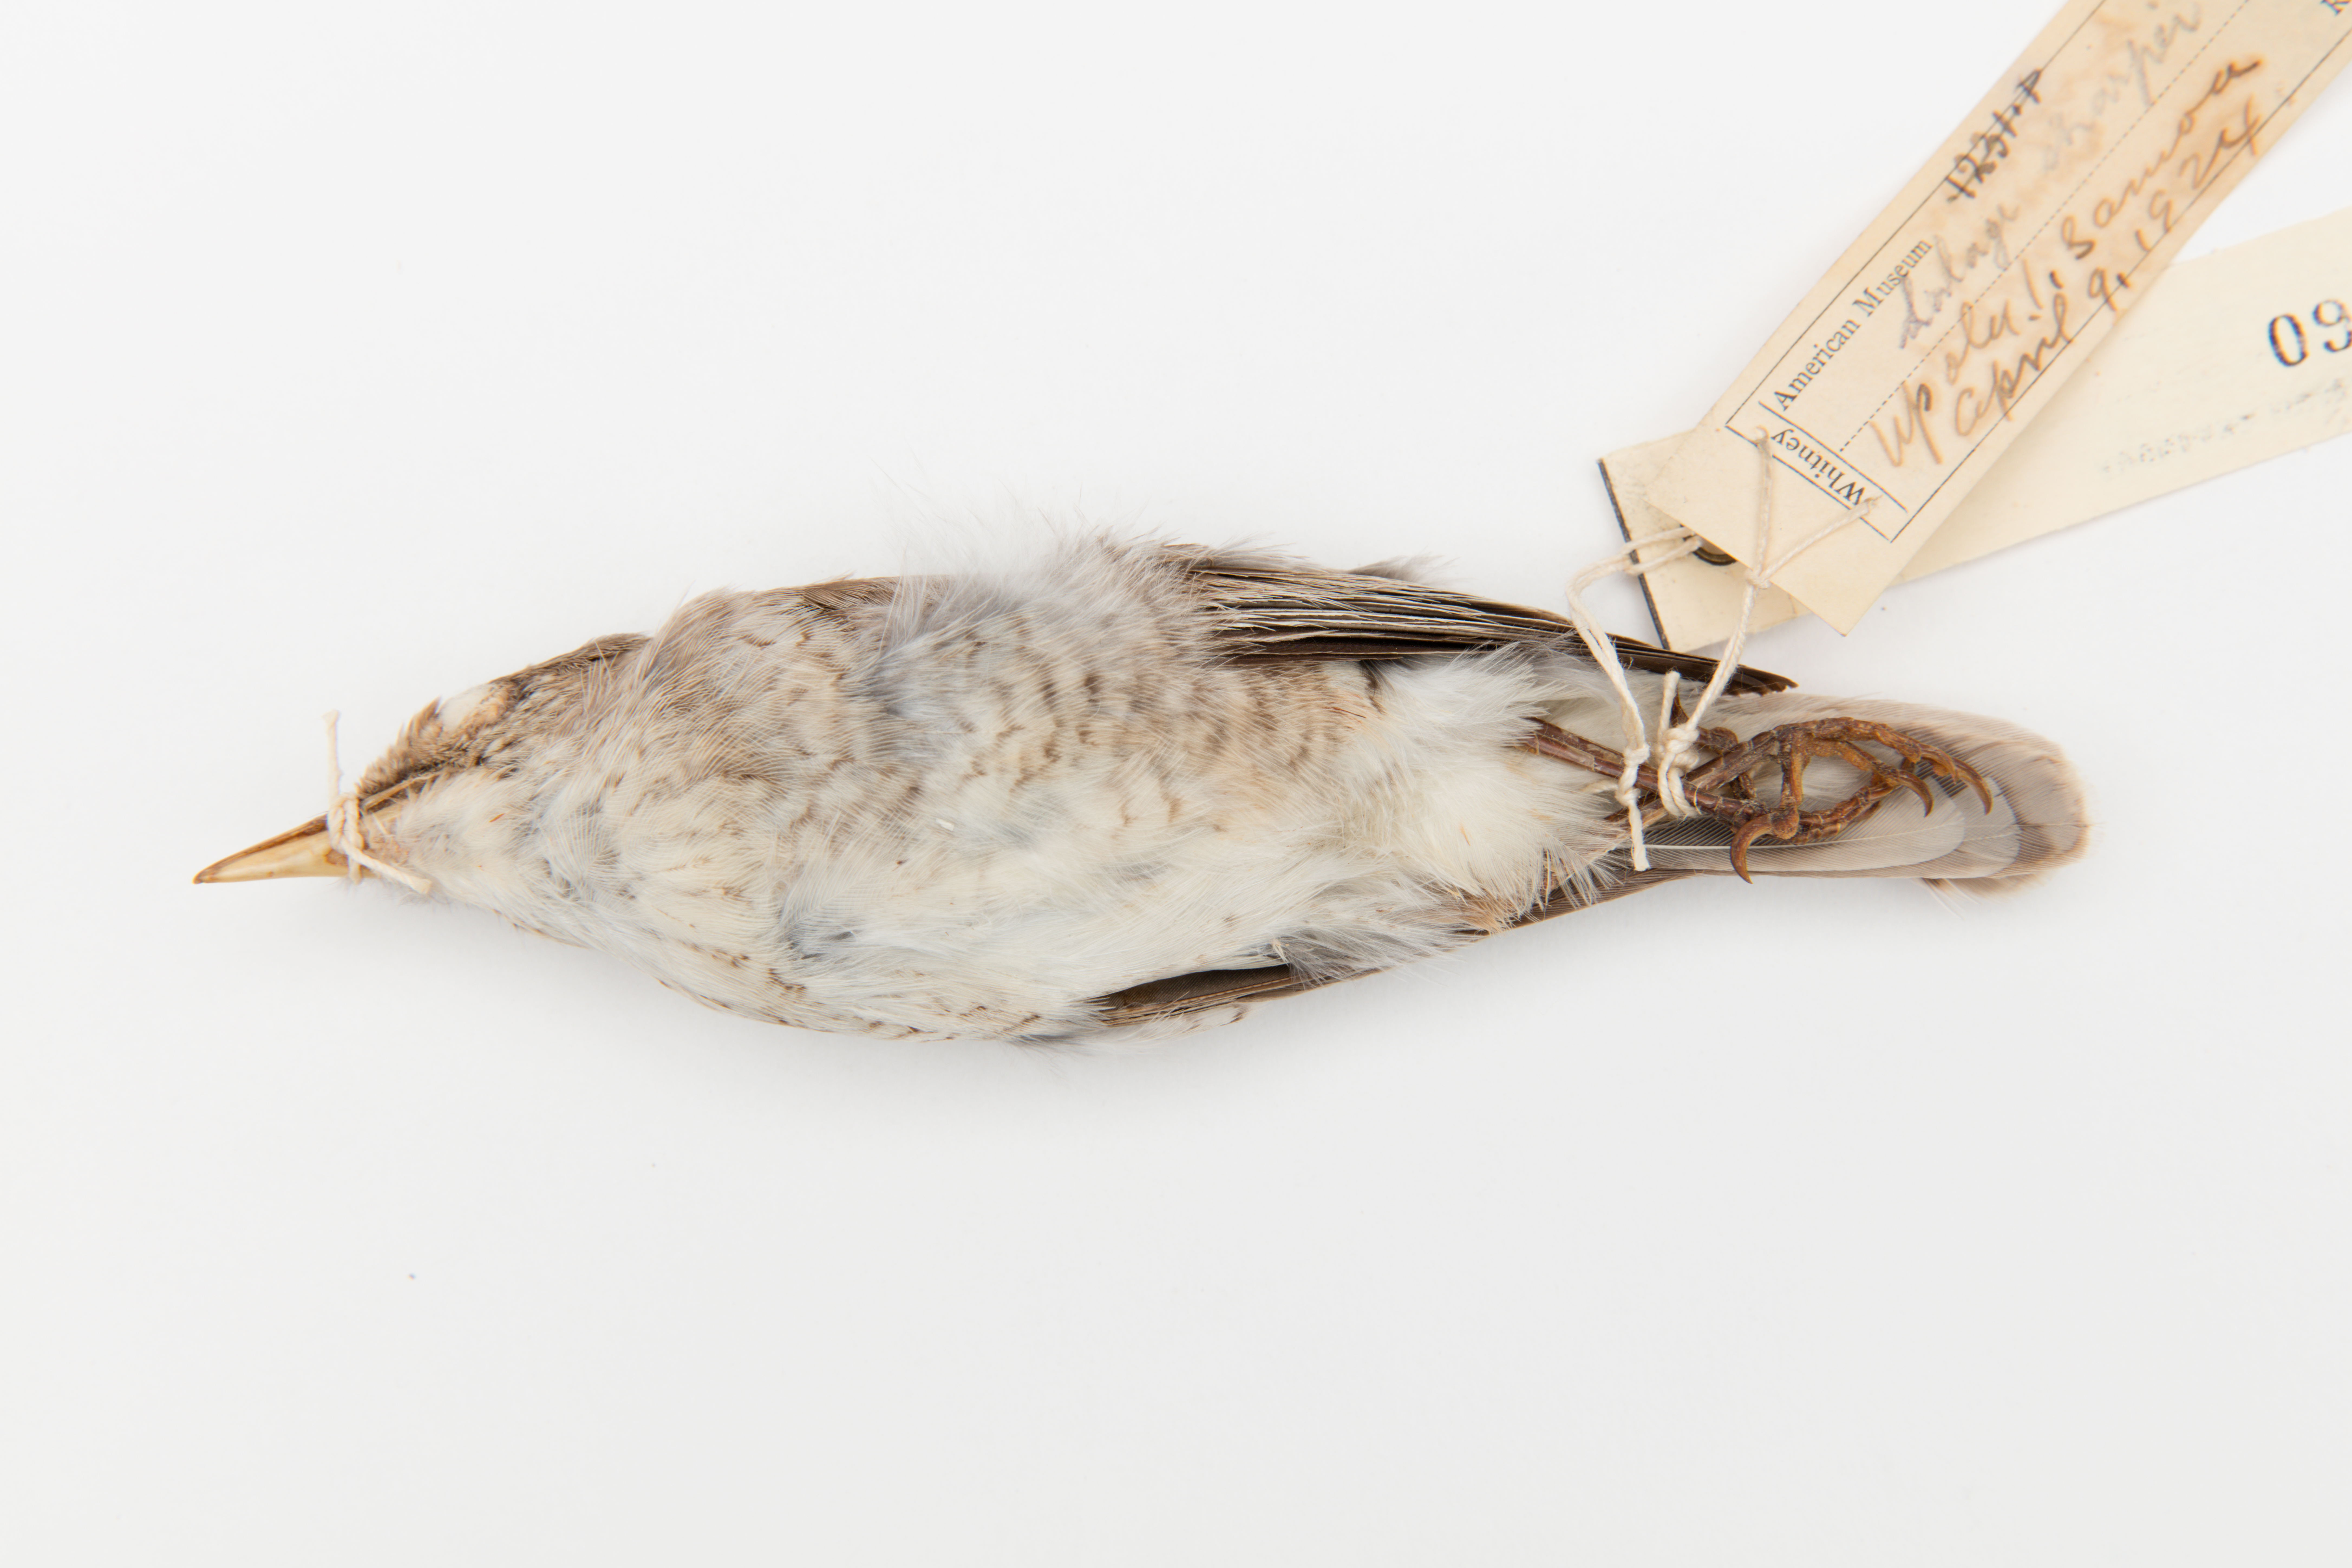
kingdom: Animalia
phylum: Chordata
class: Aves
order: Passeriformes
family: Campephagidae
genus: Lalage
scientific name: Lalage sharpei
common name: Samoan triller
